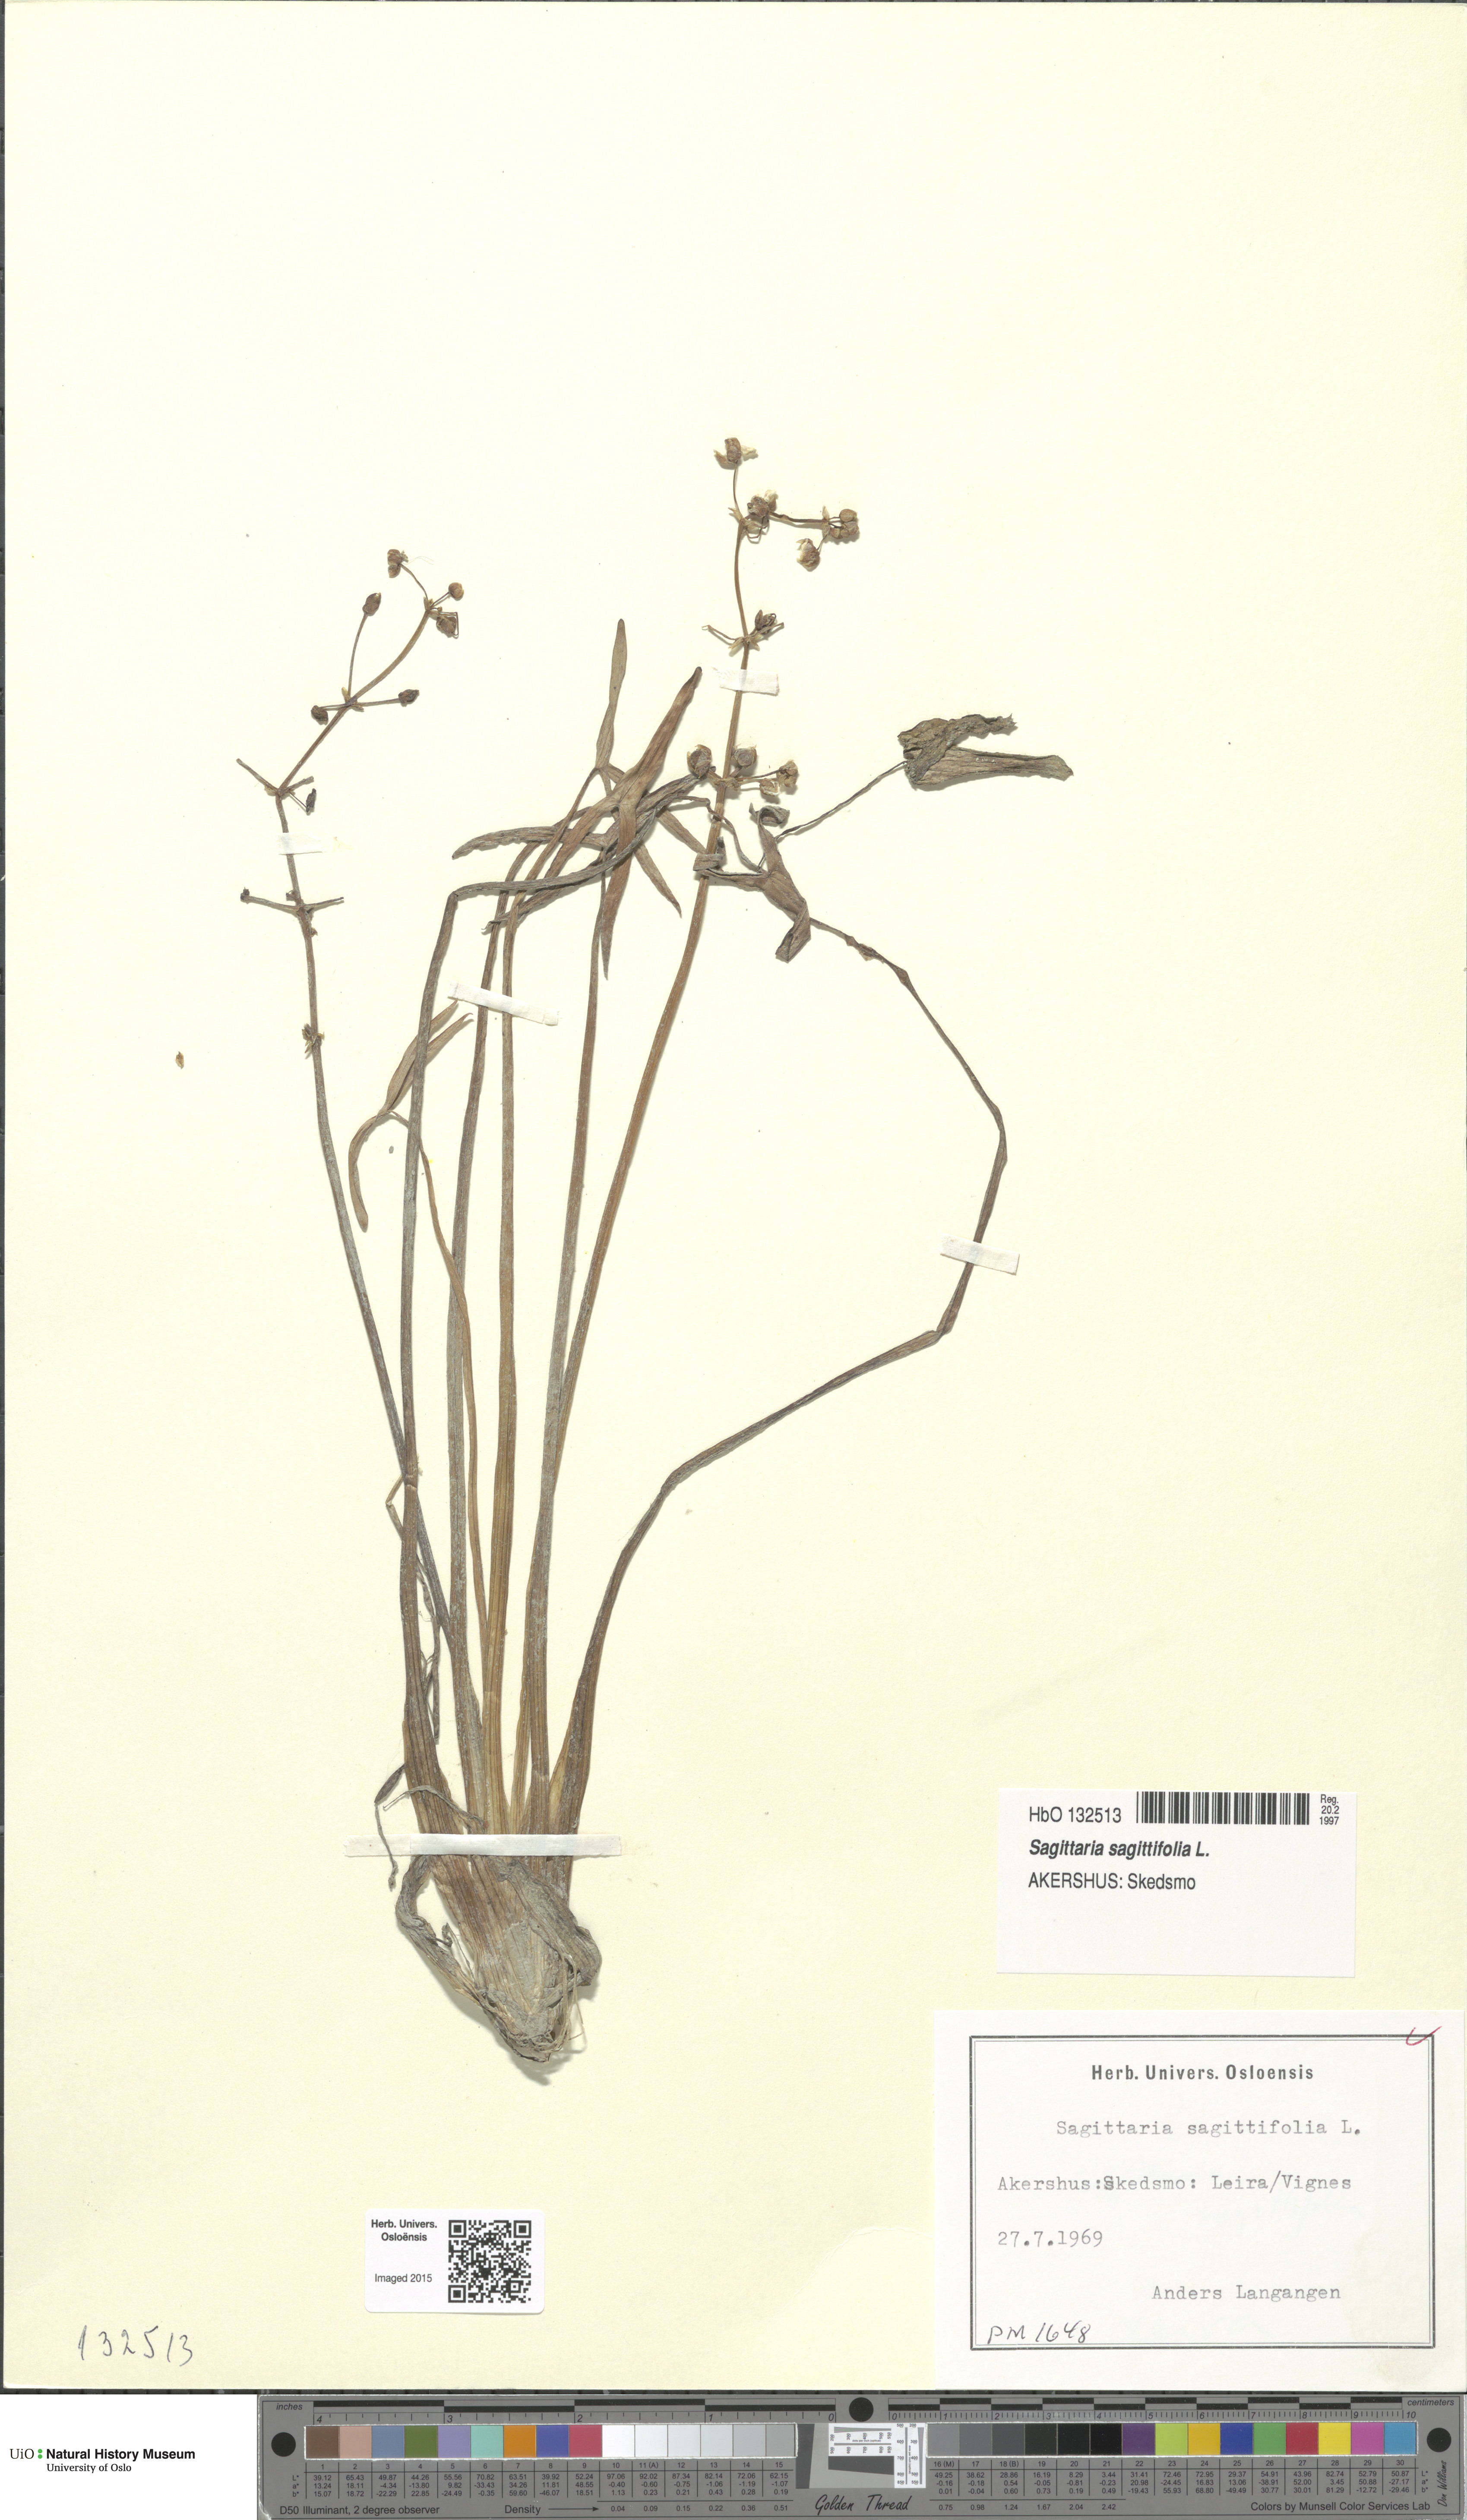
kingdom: Plantae
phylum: Tracheophyta
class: Liliopsida
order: Alismatales
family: Alismataceae
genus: Sagittaria
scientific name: Sagittaria sagittifolia
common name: Arrowhead
